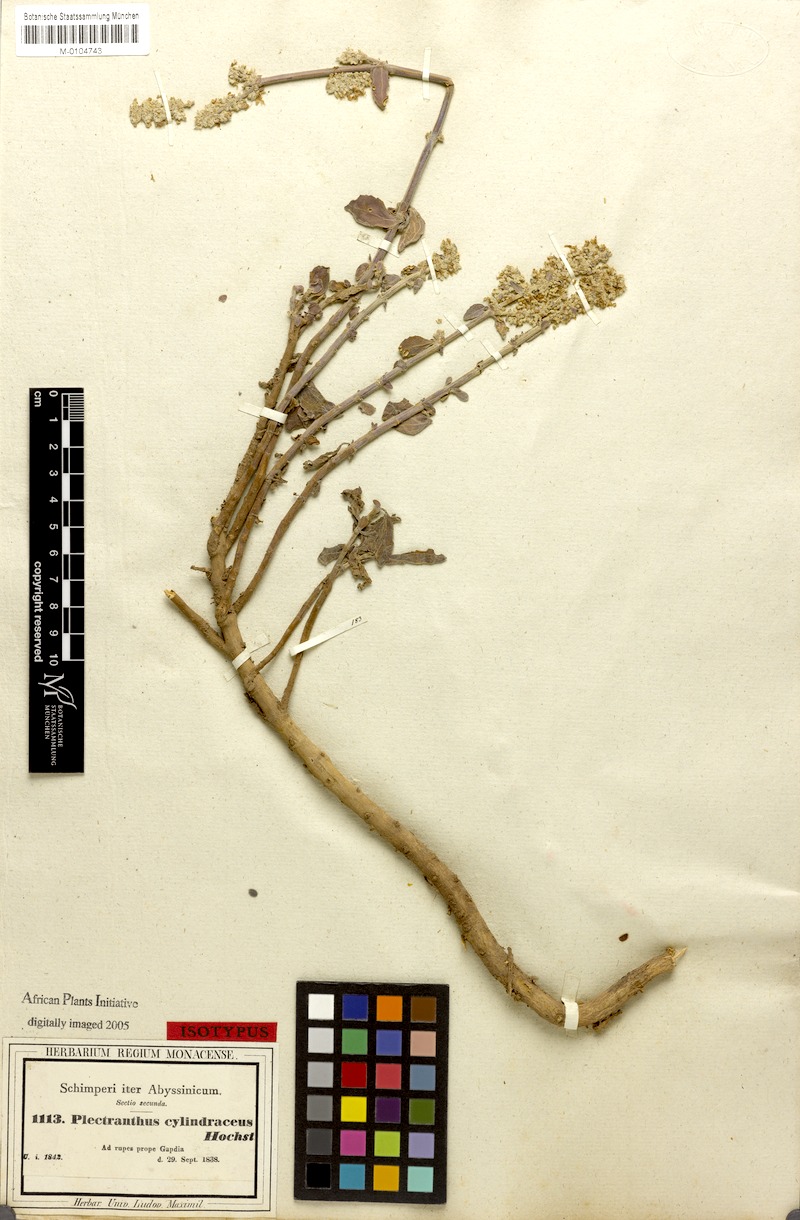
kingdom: Plantae
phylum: Tracheophyta
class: Magnoliopsida
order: Lamiales
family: Lamiaceae
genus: Coleus
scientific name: Coleus cylindraceus
